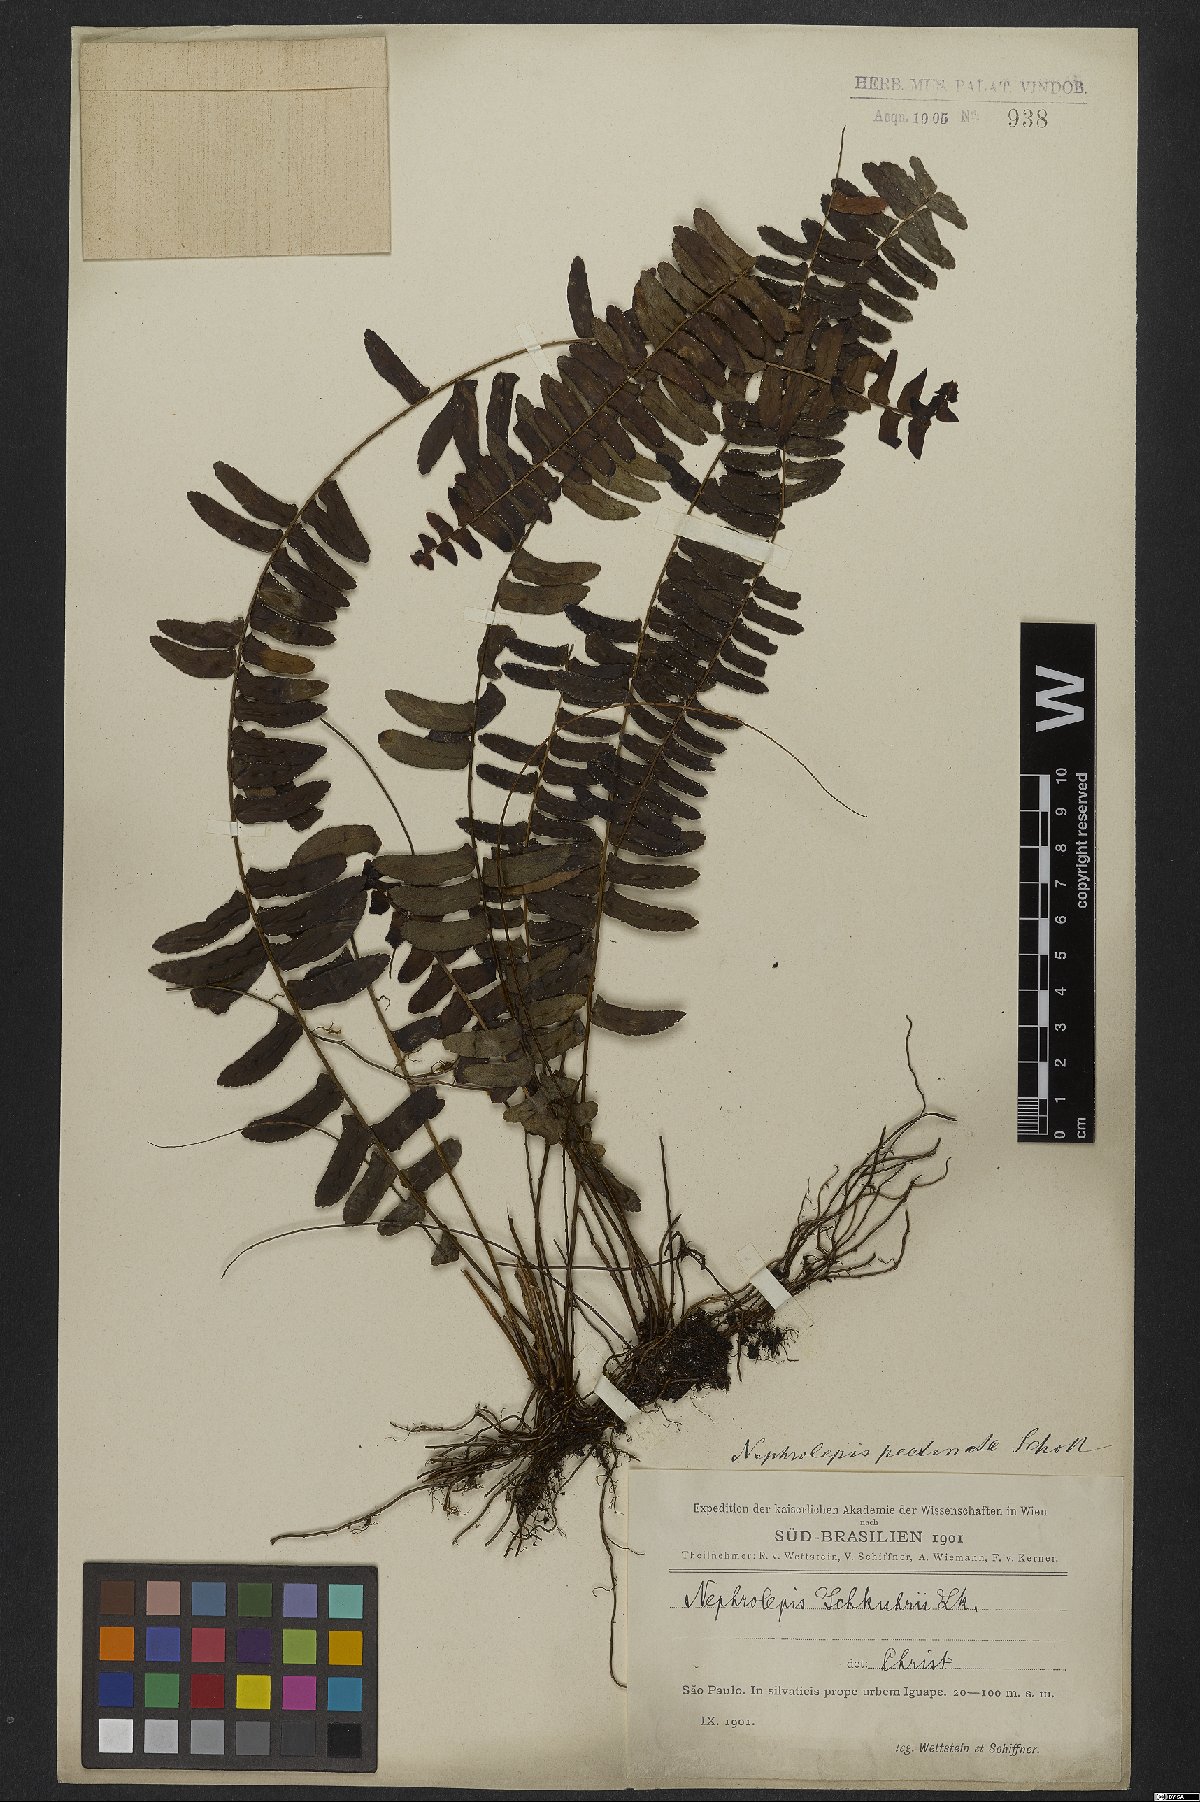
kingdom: Plantae
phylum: Tracheophyta
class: Polypodiopsida
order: Polypodiales
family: Nephrolepidaceae
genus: Nephrolepis
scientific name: Nephrolepis pectinata
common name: Basket fern
